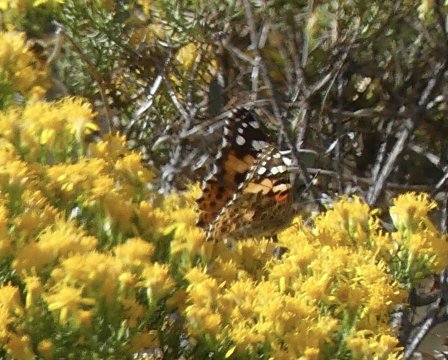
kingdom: Animalia
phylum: Arthropoda
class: Insecta
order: Lepidoptera
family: Nymphalidae
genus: Vanessa
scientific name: Vanessa cardui
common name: Painted Lady
